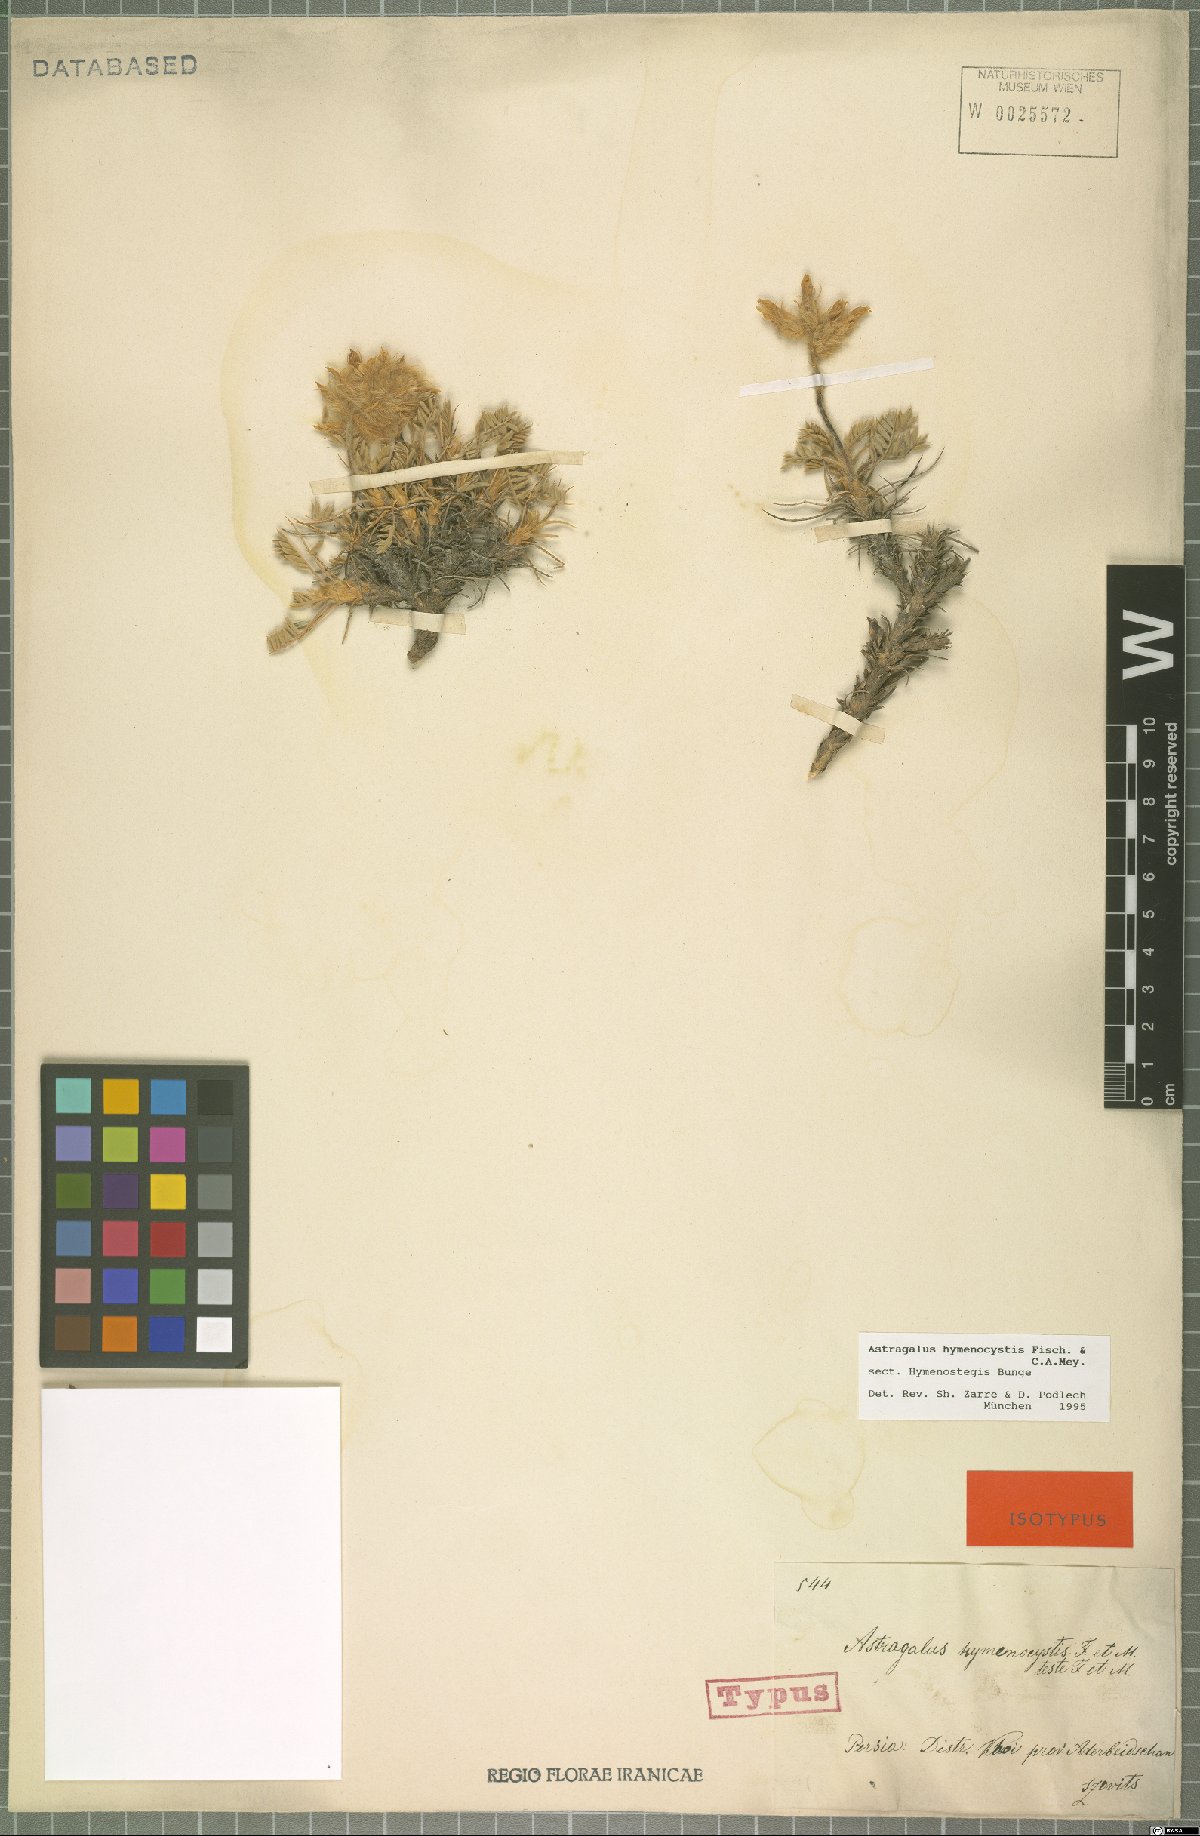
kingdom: Plantae
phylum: Tracheophyta
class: Magnoliopsida
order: Fabales
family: Fabaceae
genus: Astragalus
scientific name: Astragalus hymenocystis
